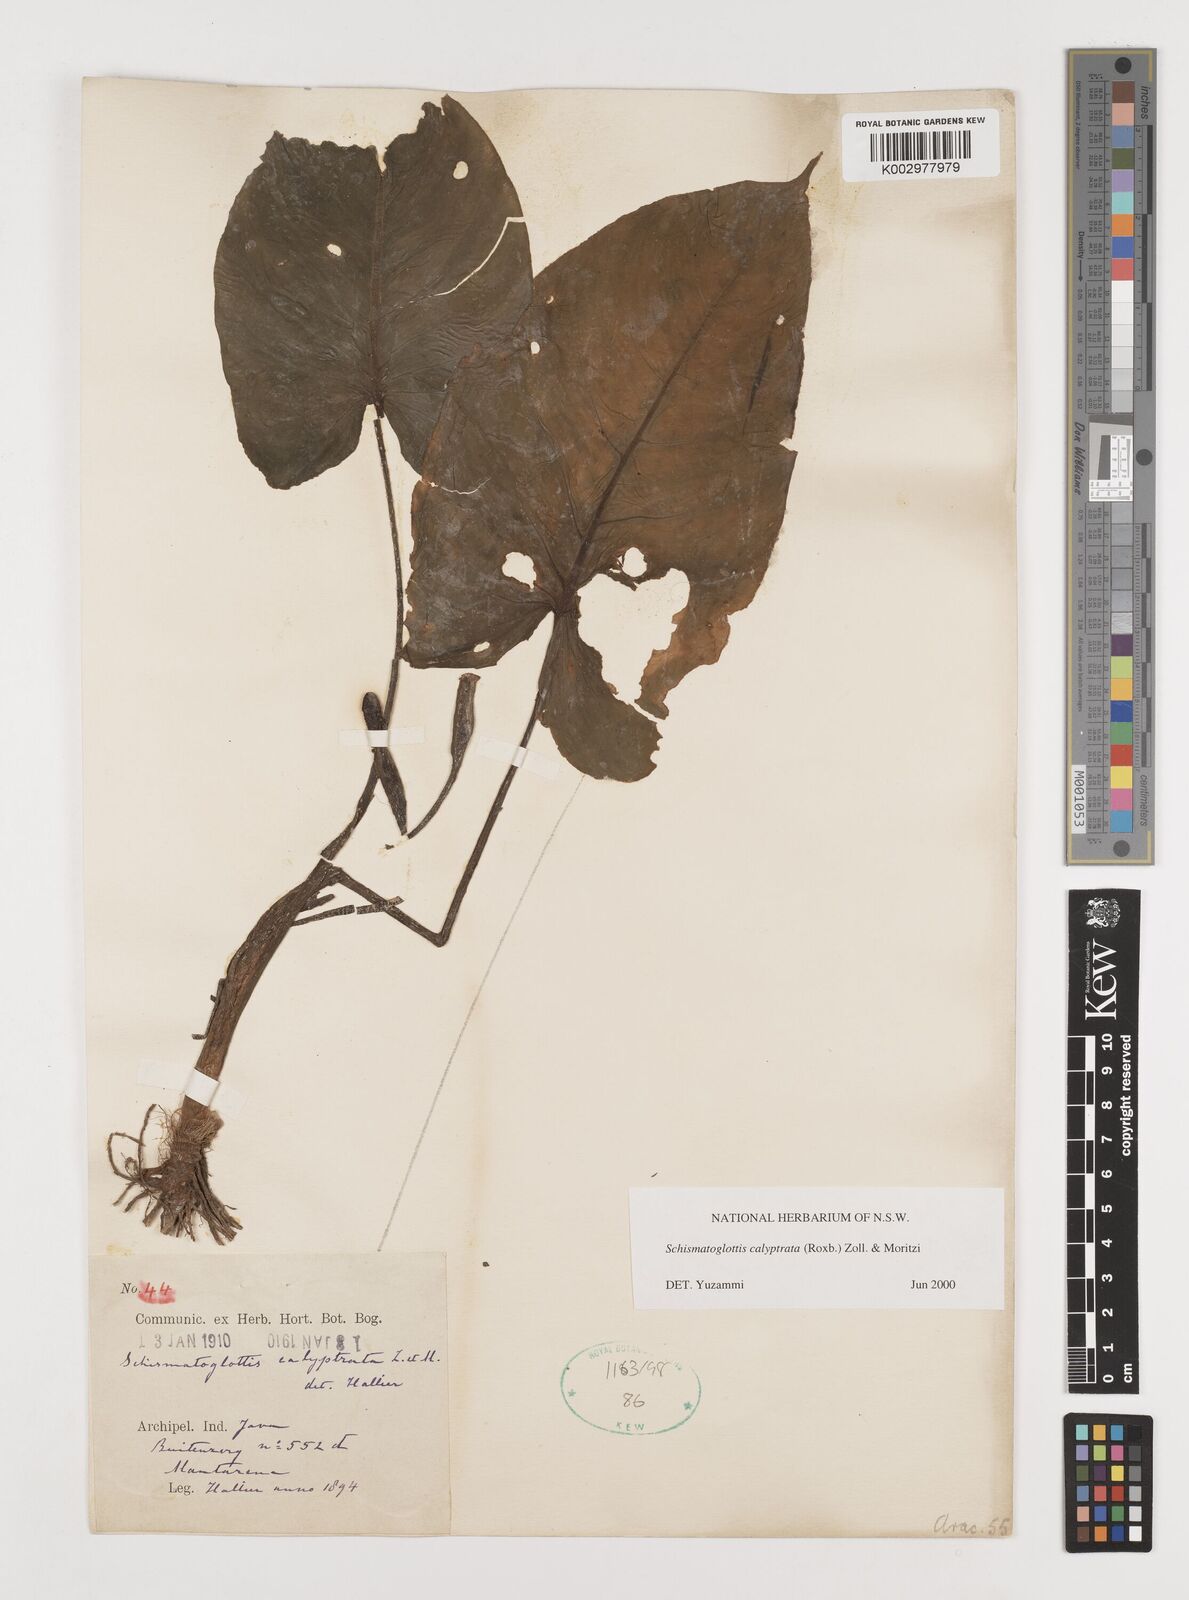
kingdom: Plantae
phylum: Tracheophyta
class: Liliopsida
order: Alismatales
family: Araceae
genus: Schismatoglottis
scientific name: Schismatoglottis calyptrata
